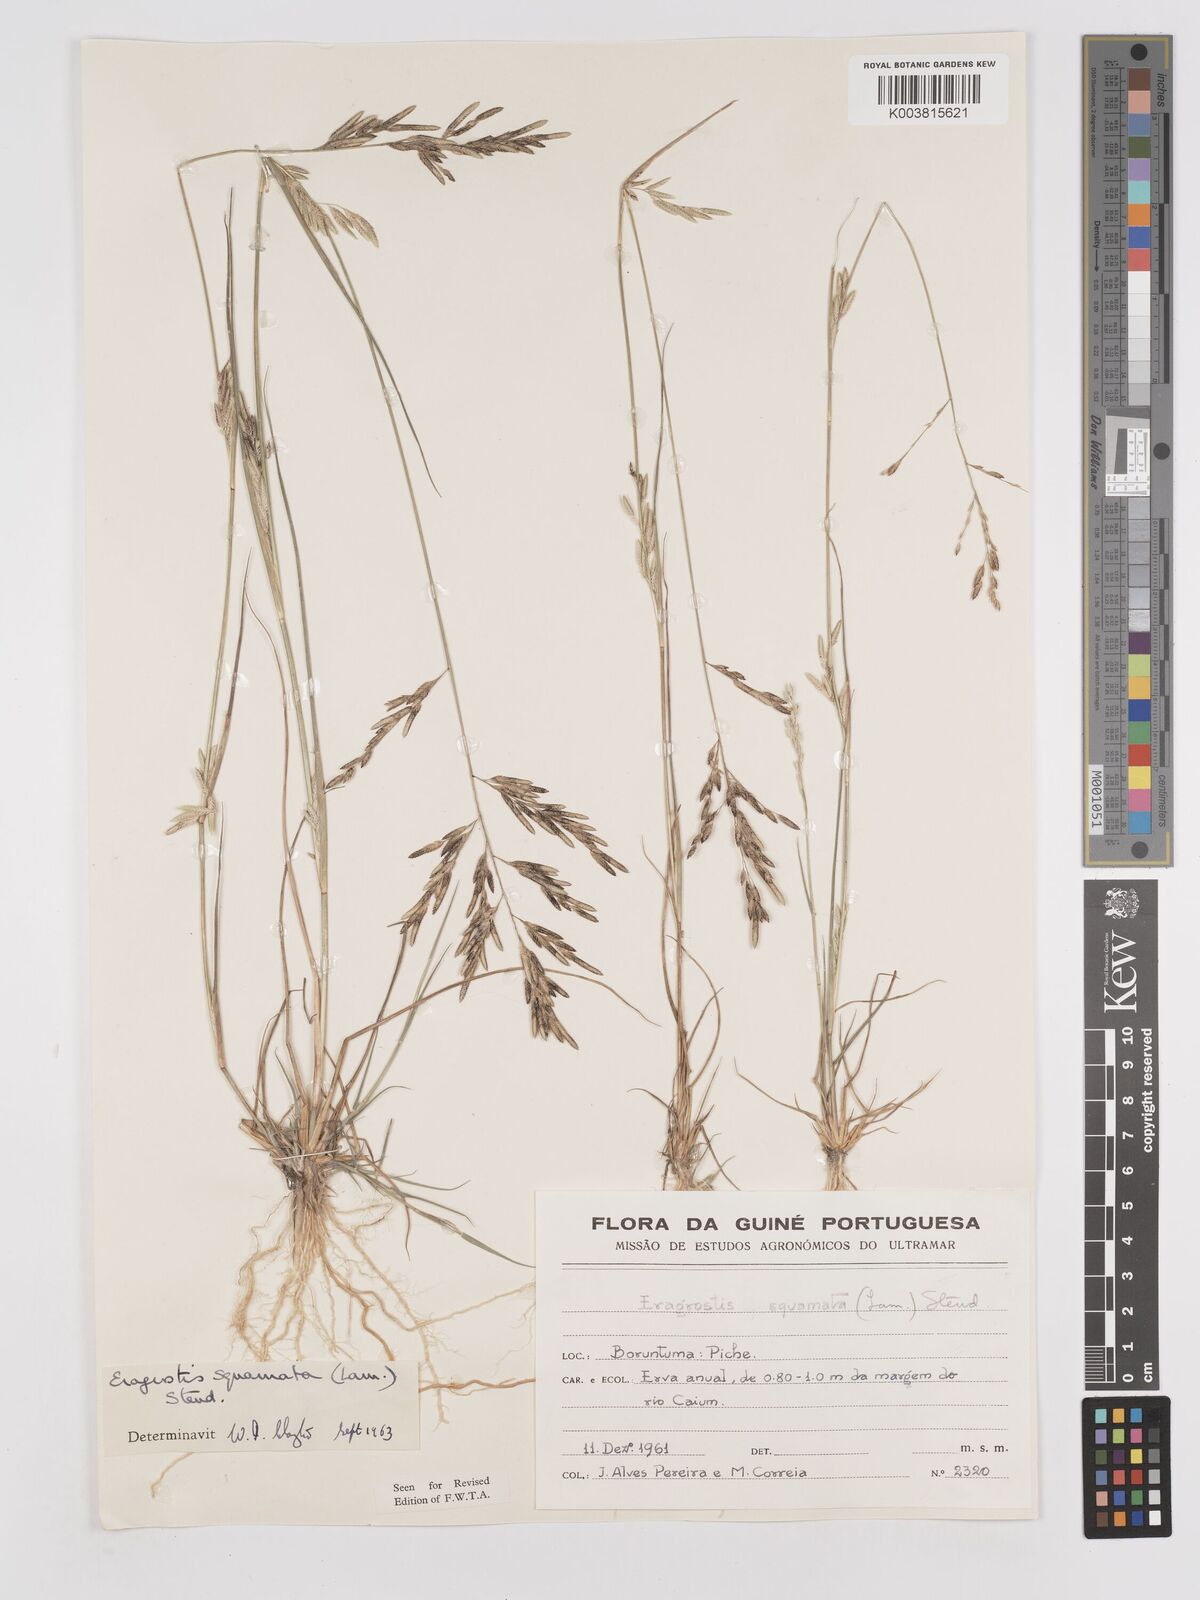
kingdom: Plantae
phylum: Tracheophyta
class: Liliopsida
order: Poales
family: Poaceae
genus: Eragrostis
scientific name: Eragrostis squamata
